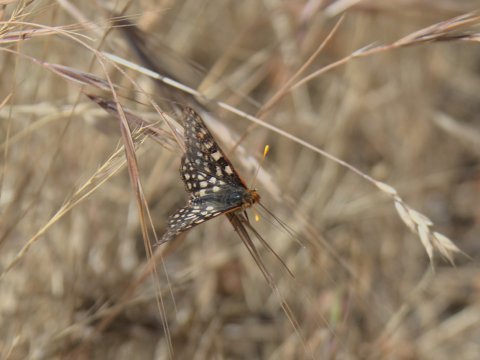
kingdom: Animalia
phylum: Arthropoda
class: Insecta
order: Lepidoptera
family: Nymphalidae
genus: Occidryas
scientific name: Occidryas chalcedona
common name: Chalcedon Checkerspot
